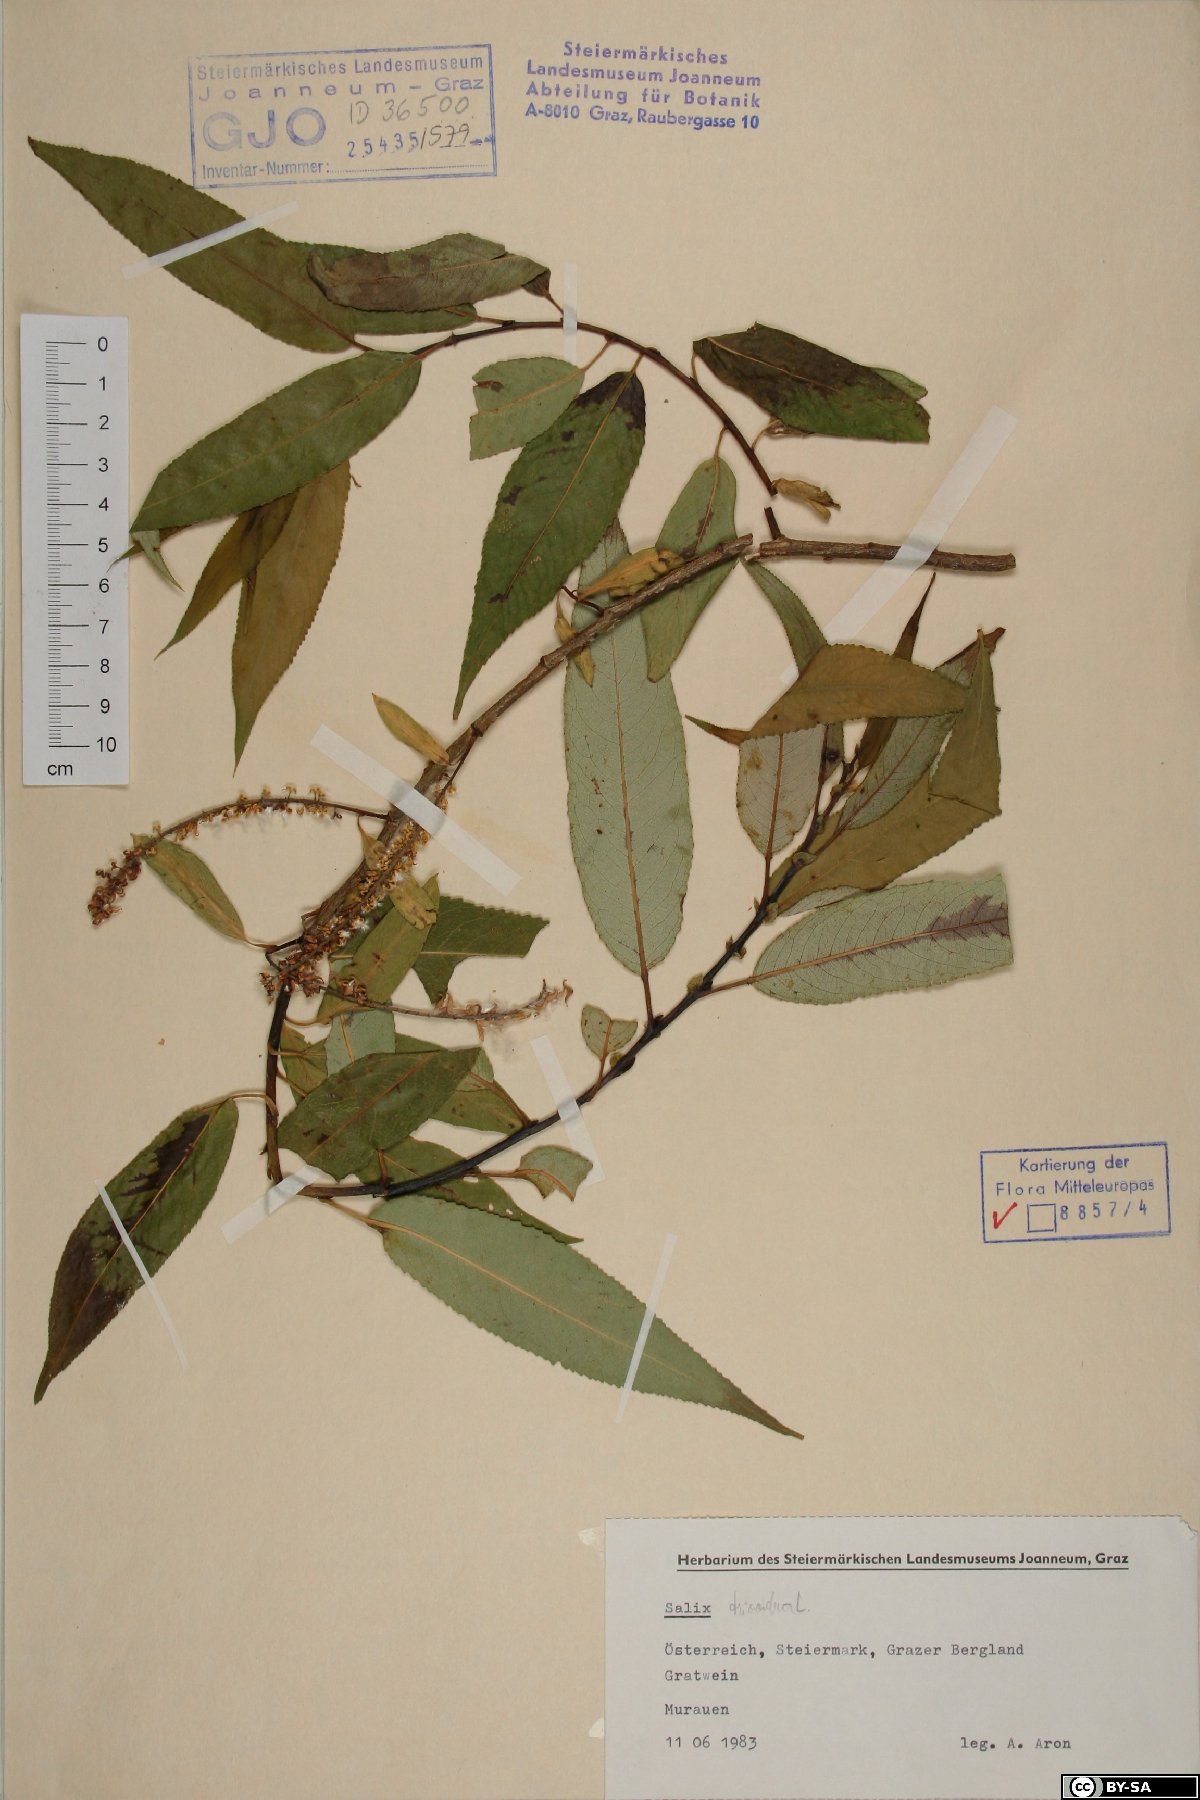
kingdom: Plantae
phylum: Tracheophyta
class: Magnoliopsida
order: Malpighiales
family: Salicaceae
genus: Salix
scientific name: Salix triandra
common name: Almond willow
